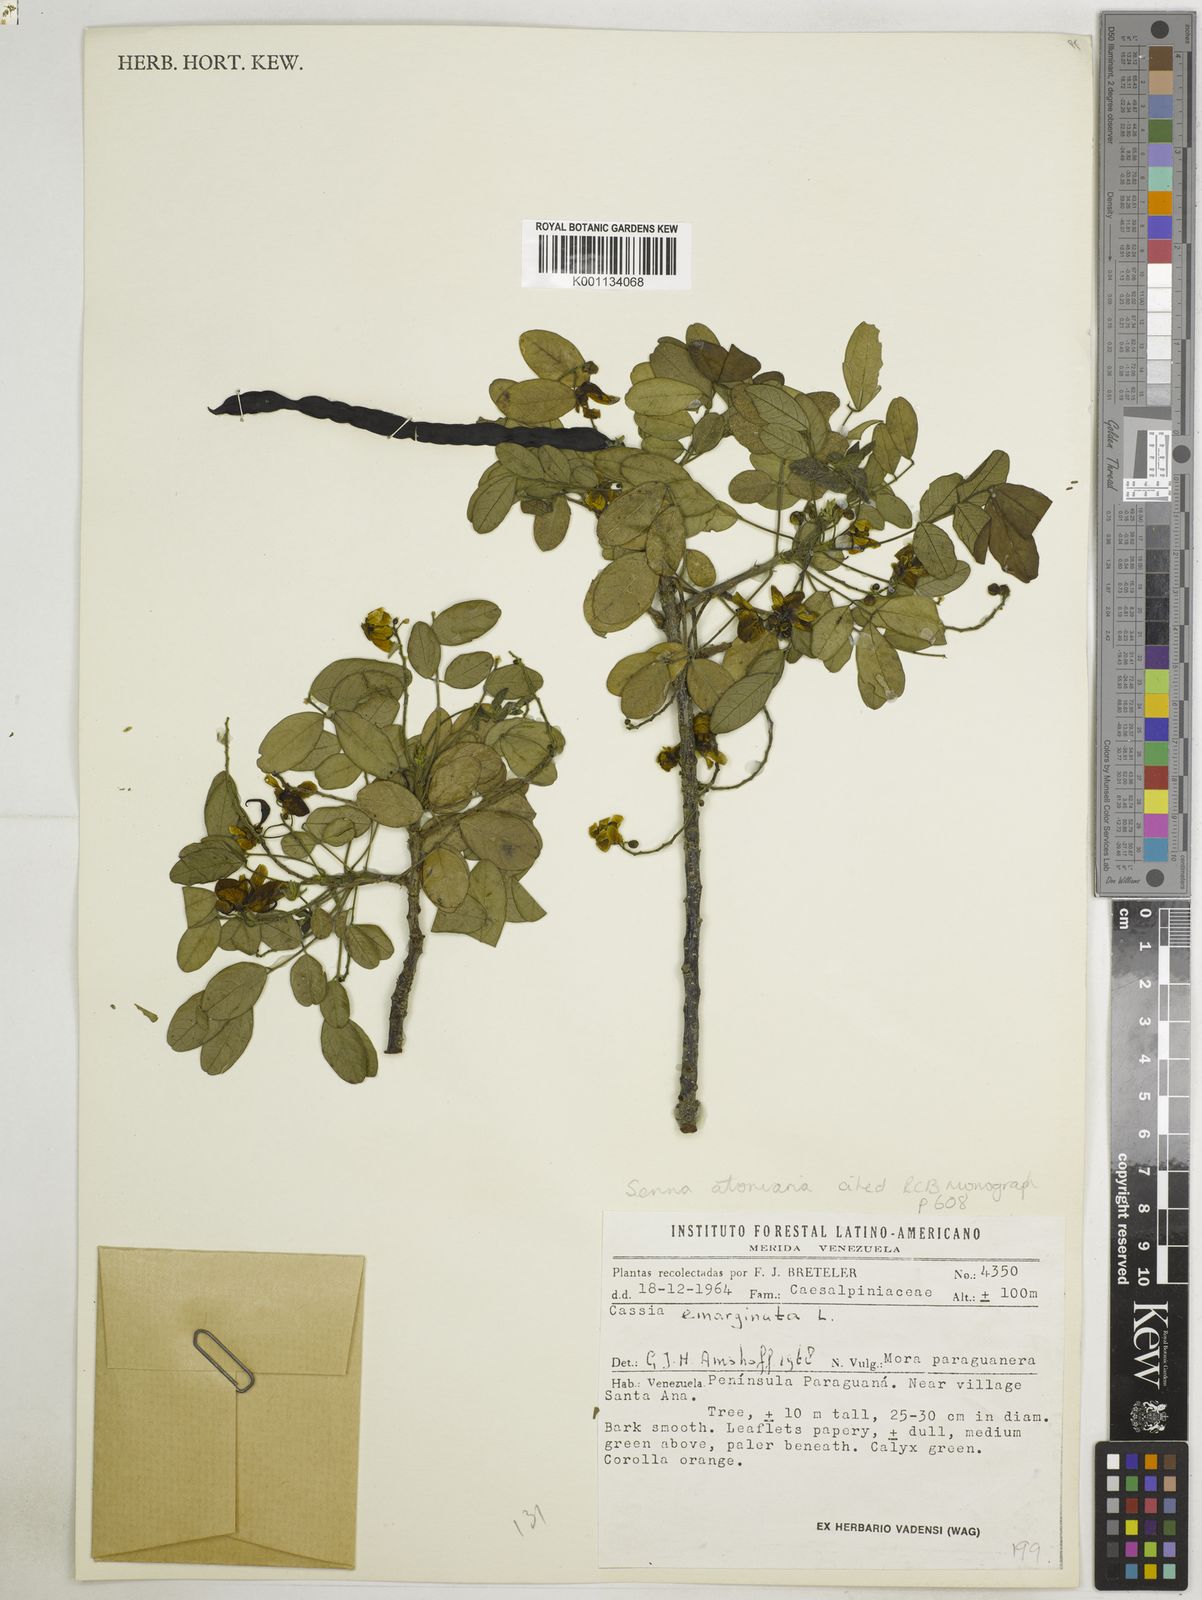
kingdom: Plantae
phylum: Tracheophyta
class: Magnoliopsida
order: Fabales
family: Fabaceae
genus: Senna
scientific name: Senna atomaria
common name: Flor de san jose
